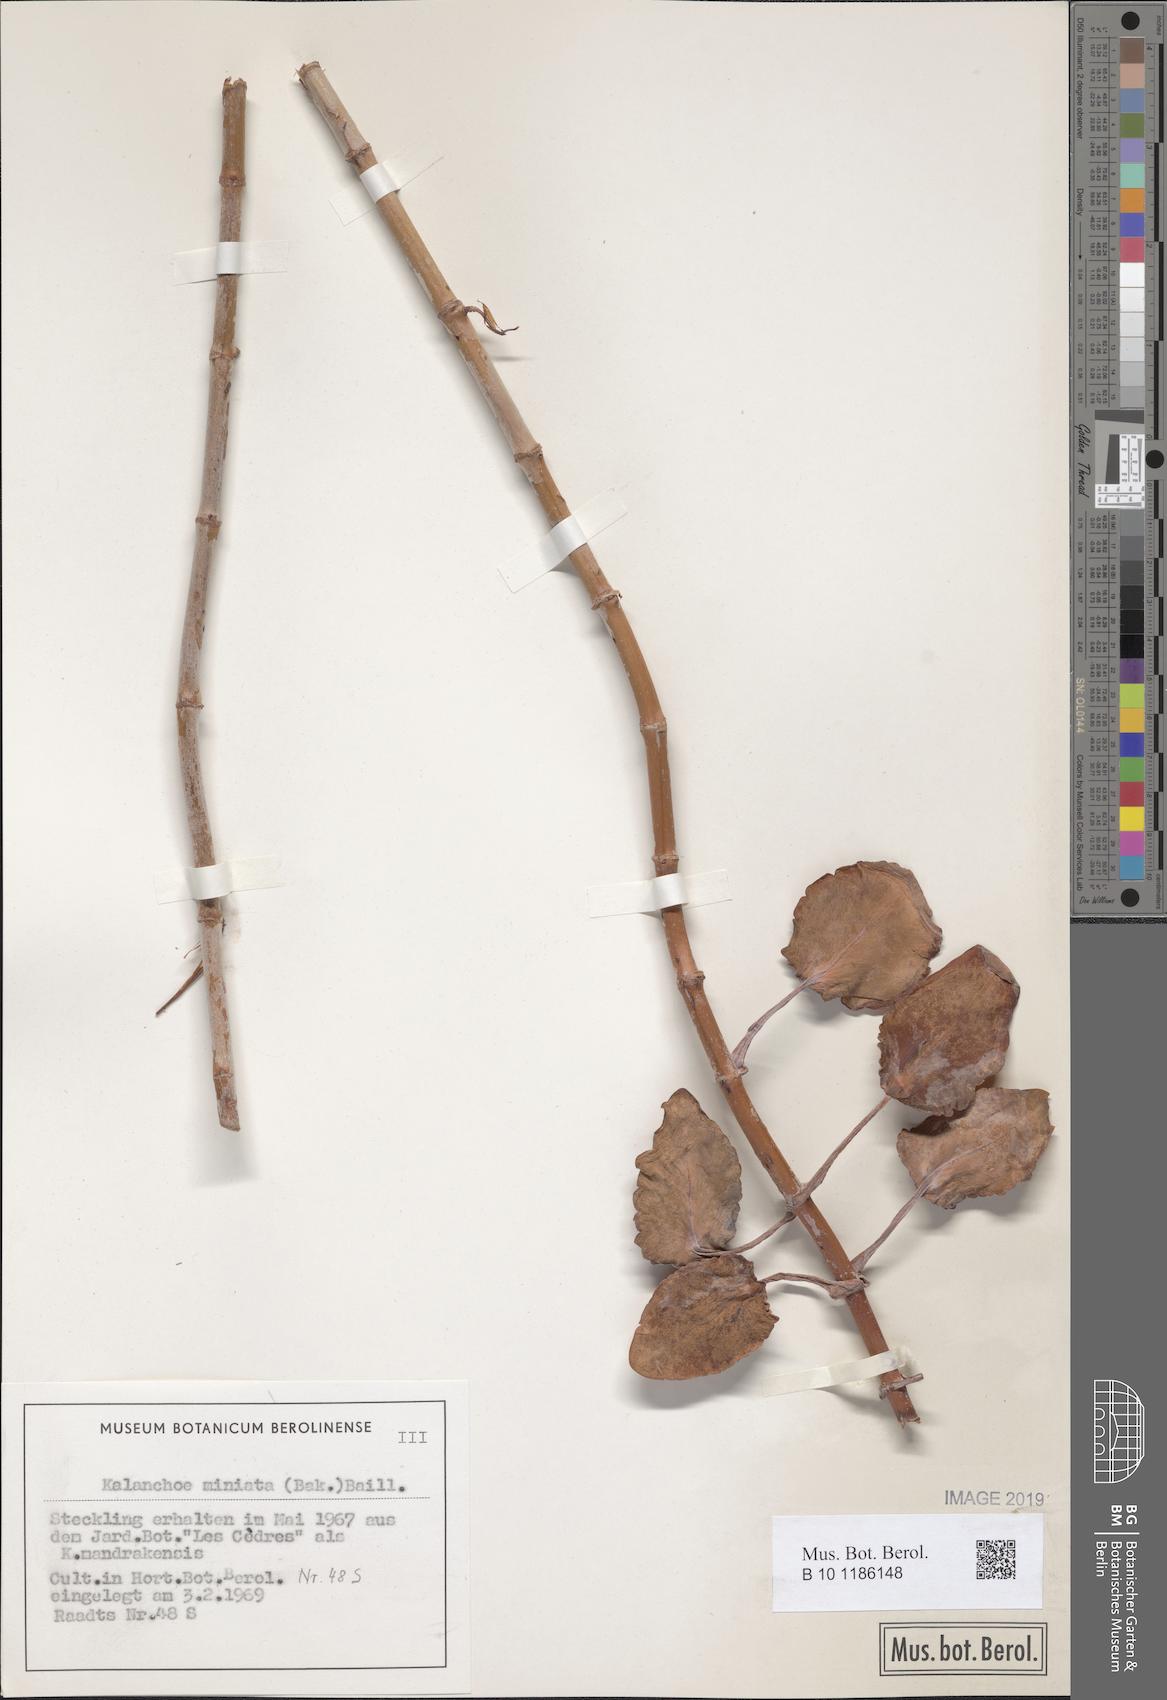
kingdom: Plantae
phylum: Tracheophyta
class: Magnoliopsida
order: Saxifragales
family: Crassulaceae
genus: Kalanchoe
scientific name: Kalanchoe miniata
